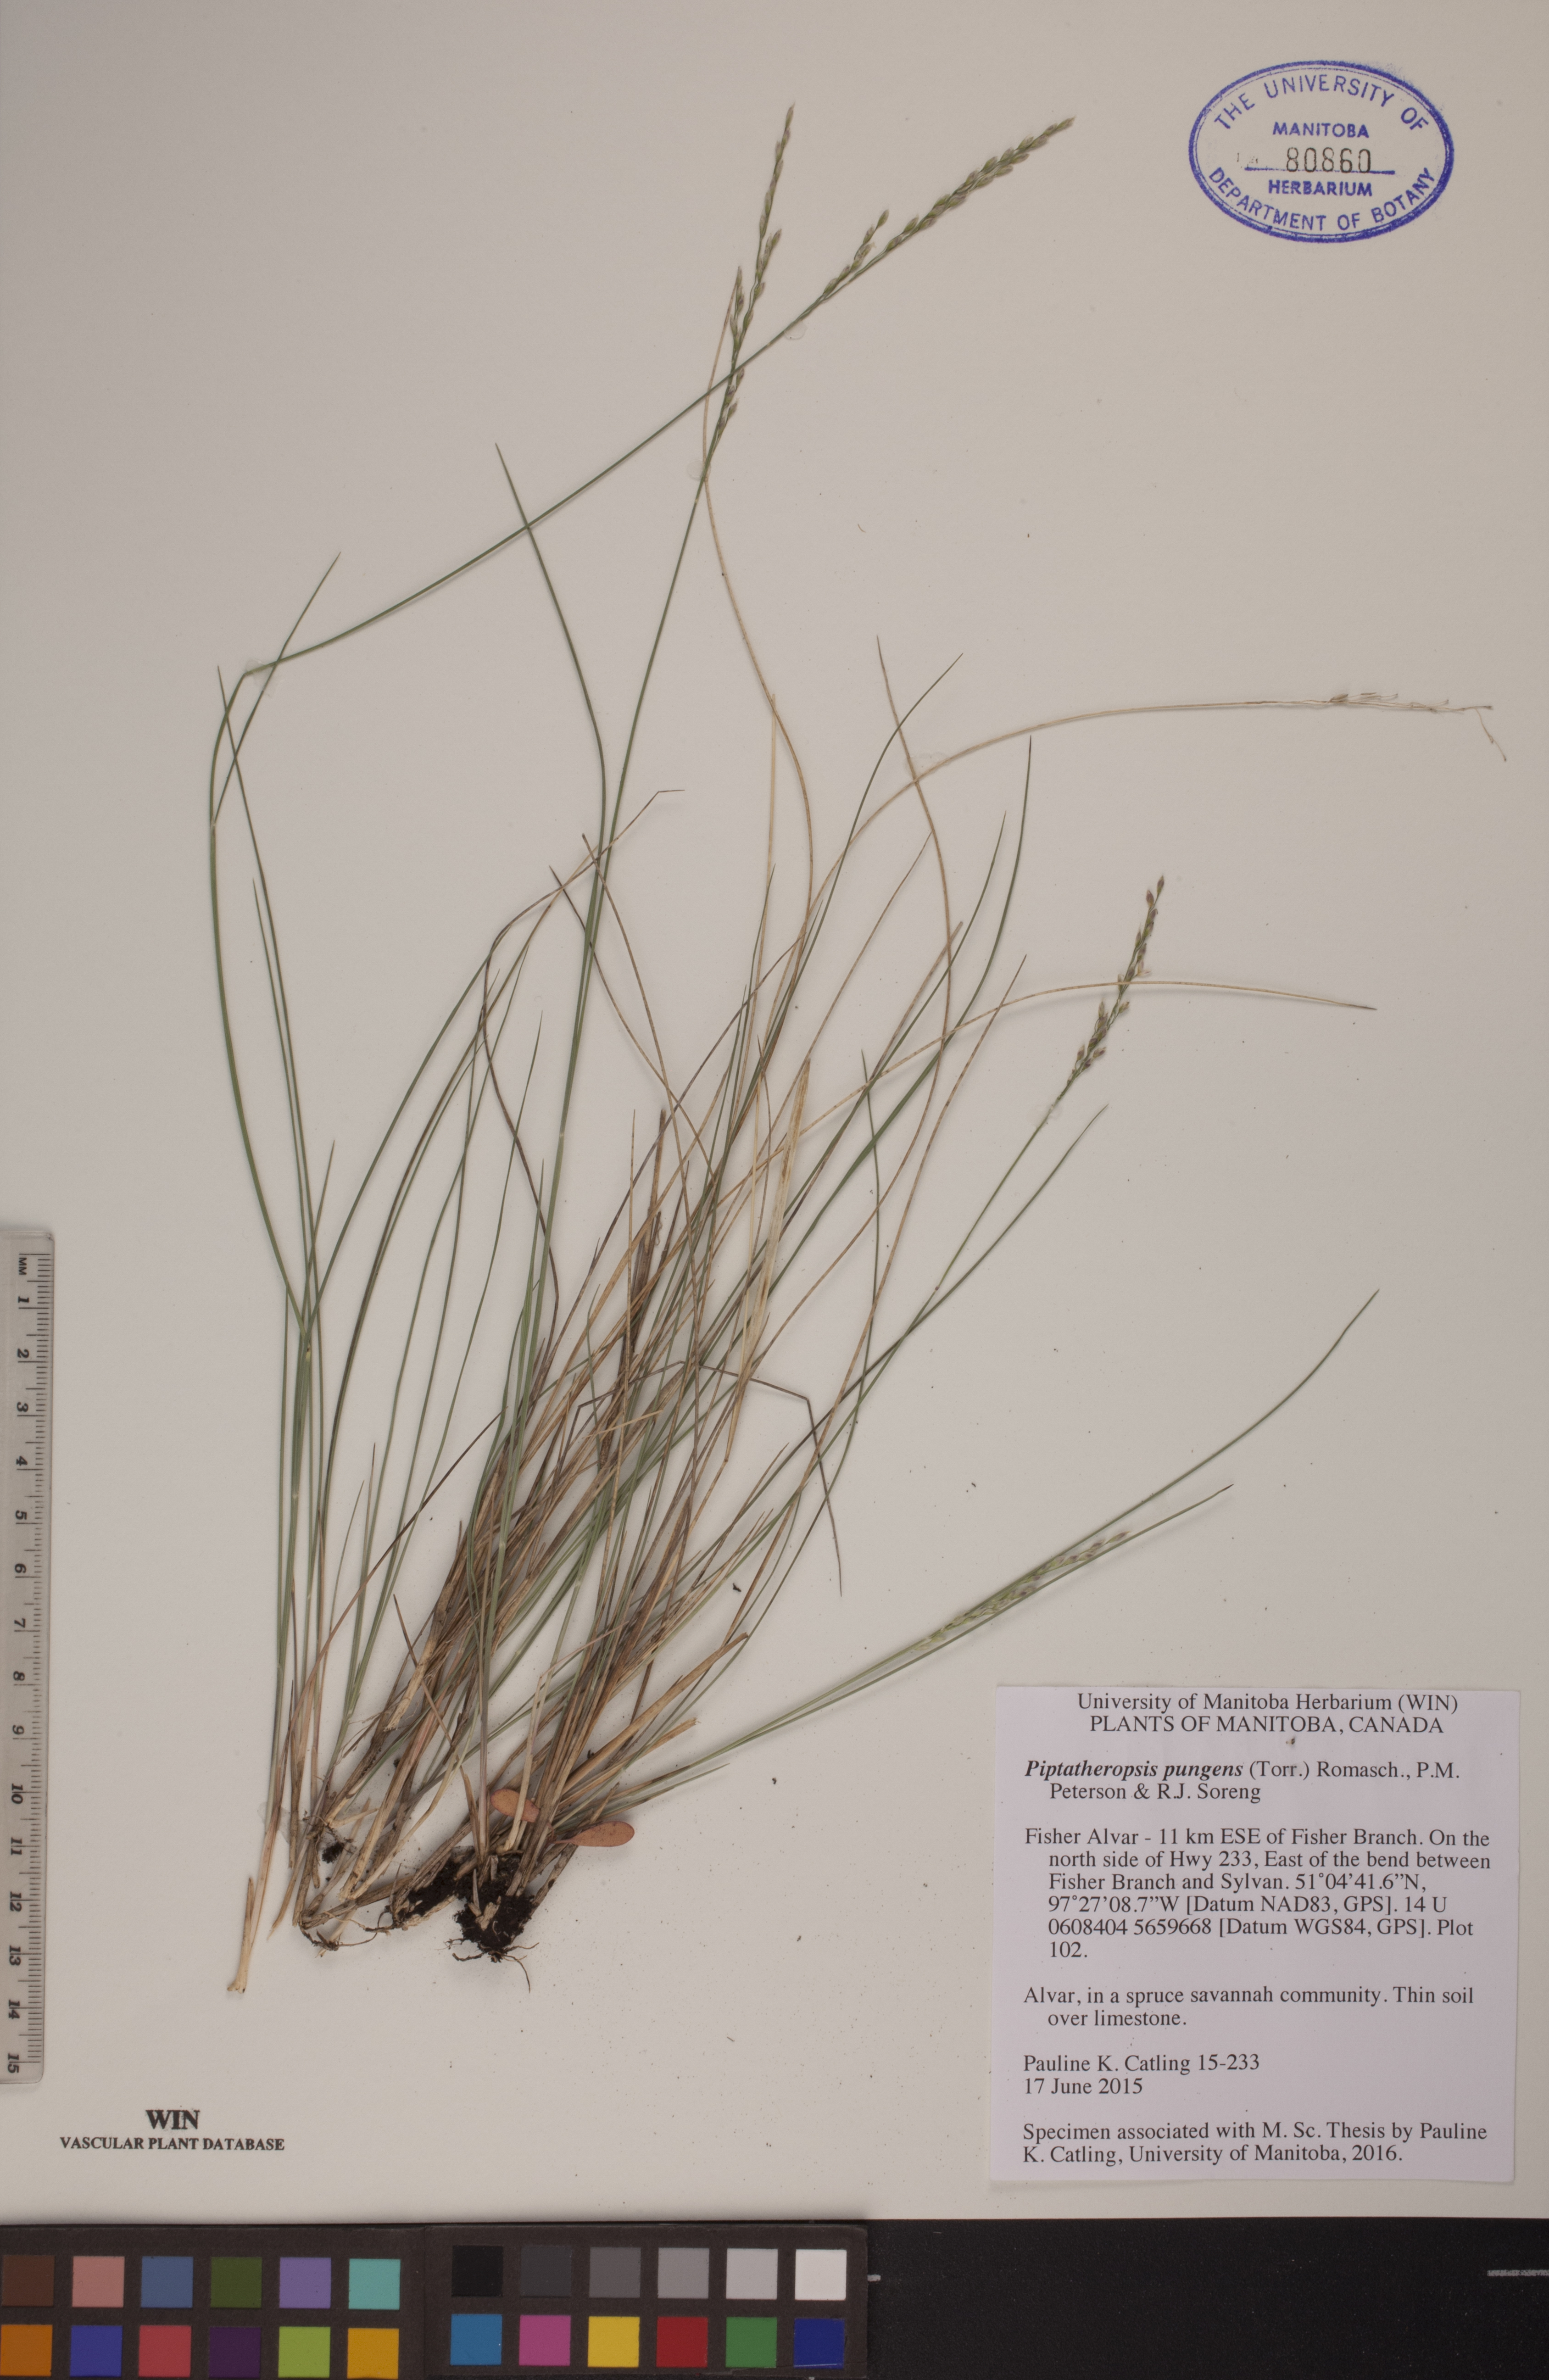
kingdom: Plantae
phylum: Tracheophyta
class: Liliopsida
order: Poales
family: Poaceae
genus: Piptatheropsis
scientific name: Piptatheropsis pungens
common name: Northern ricegrass
